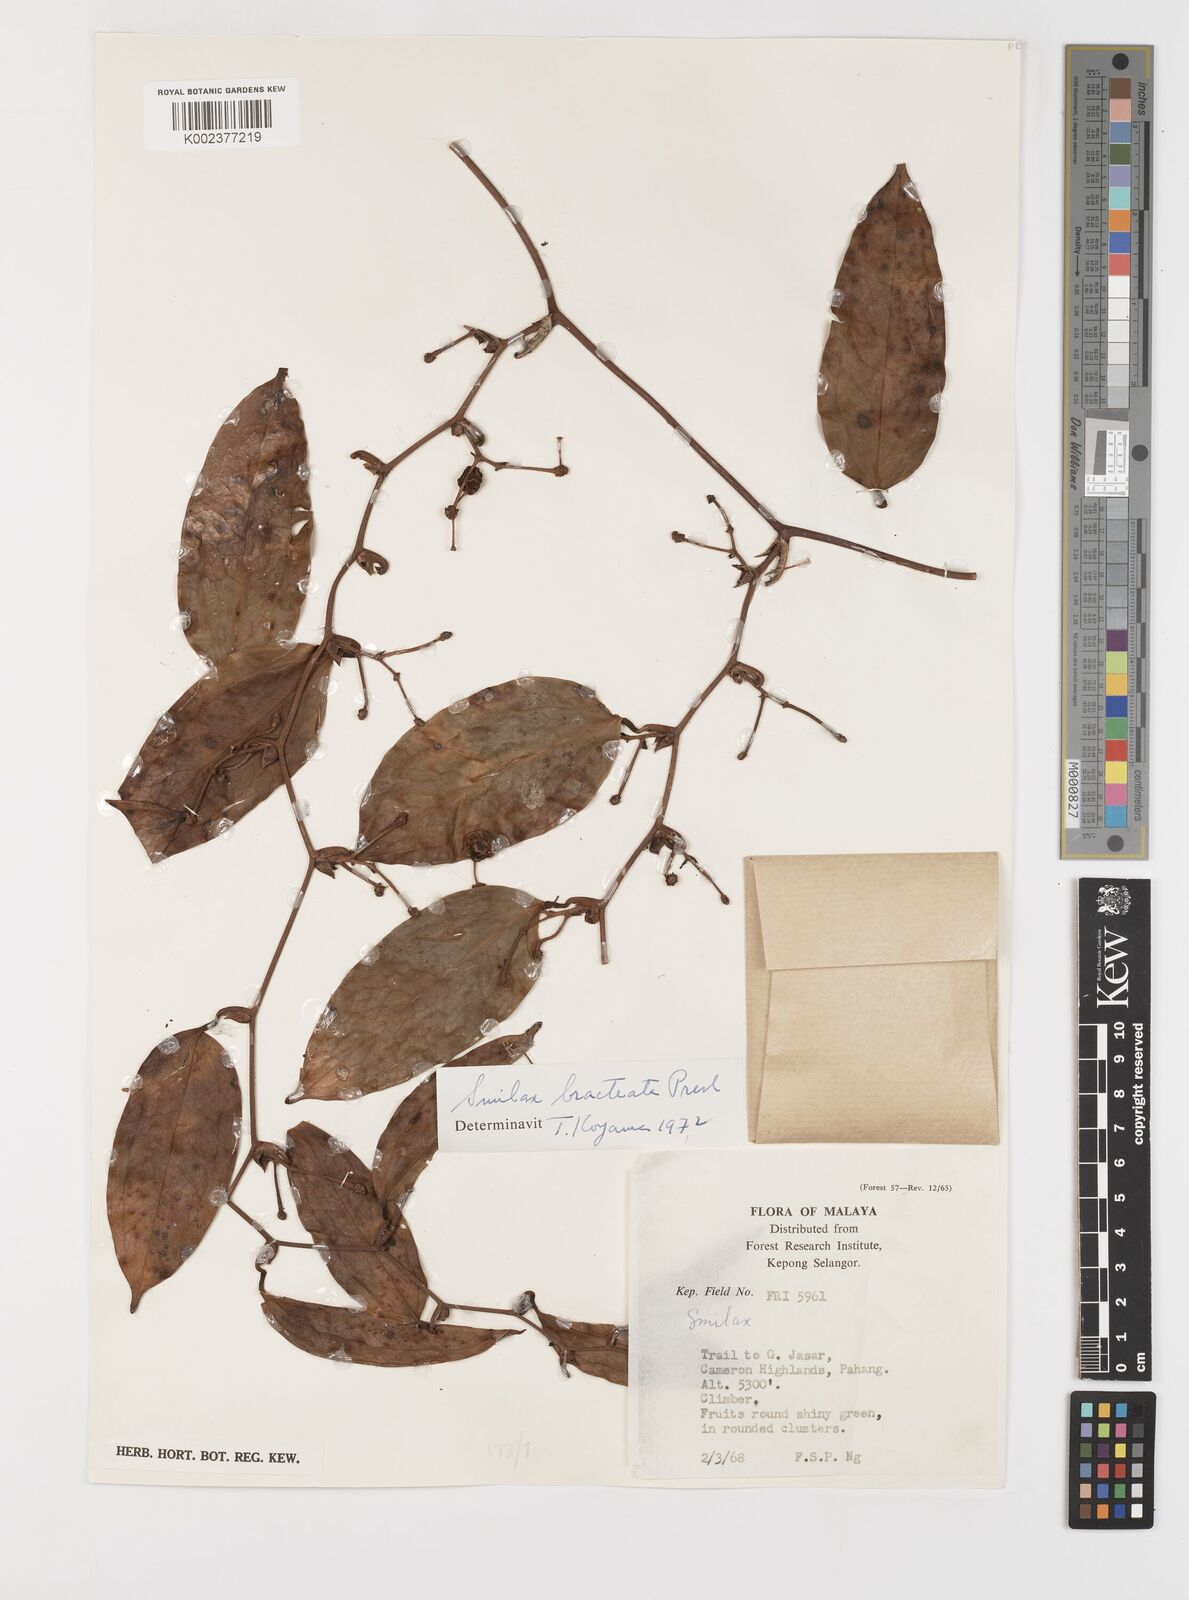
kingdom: Plantae
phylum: Tracheophyta
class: Liliopsida
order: Liliales
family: Smilacaceae
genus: Smilax
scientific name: Smilax bracteata
